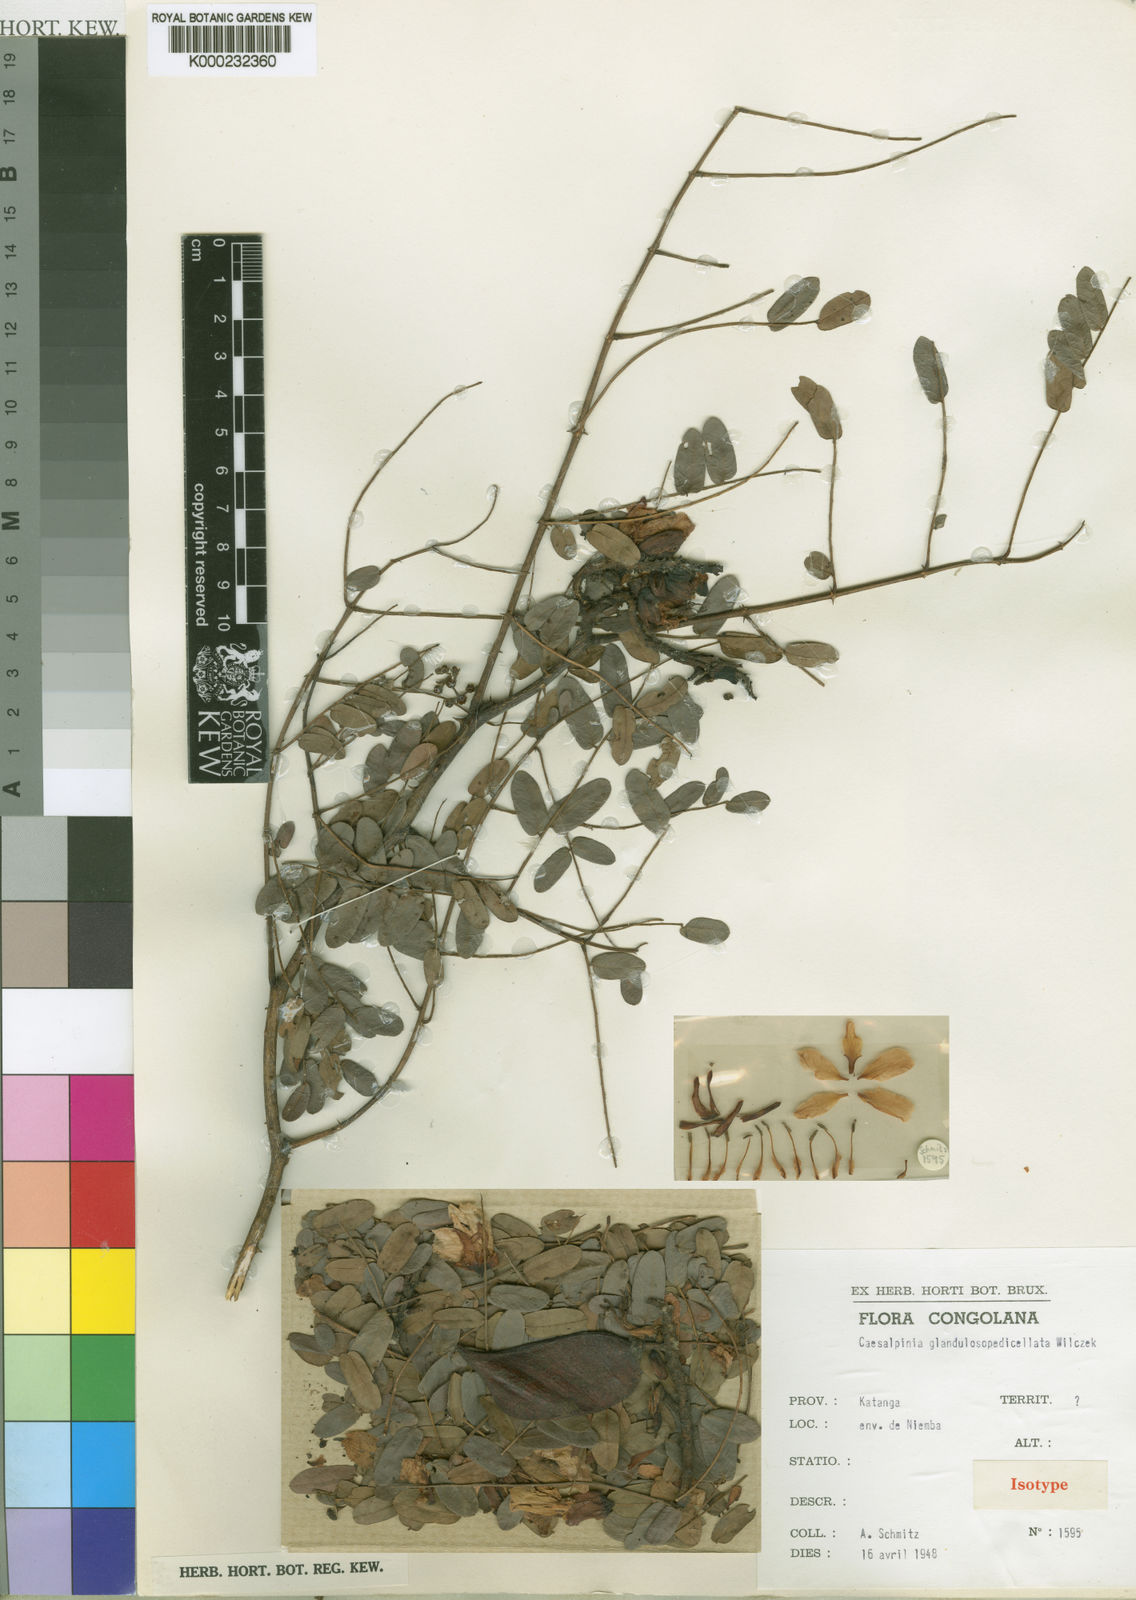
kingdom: Plantae
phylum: Tracheophyta
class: Magnoliopsida
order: Fabales
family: Fabaceae
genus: Gelrebia
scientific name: Gelrebia glandulosopedicellata
